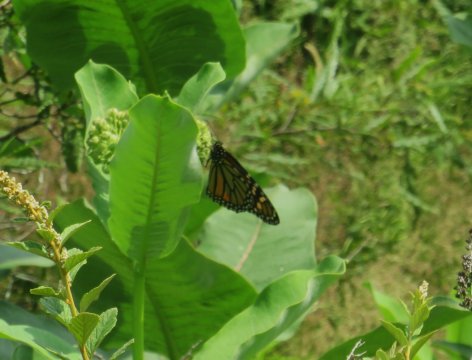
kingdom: Animalia
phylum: Arthropoda
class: Insecta
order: Lepidoptera
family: Nymphalidae
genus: Danaus
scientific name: Danaus plexippus
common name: Monarch
